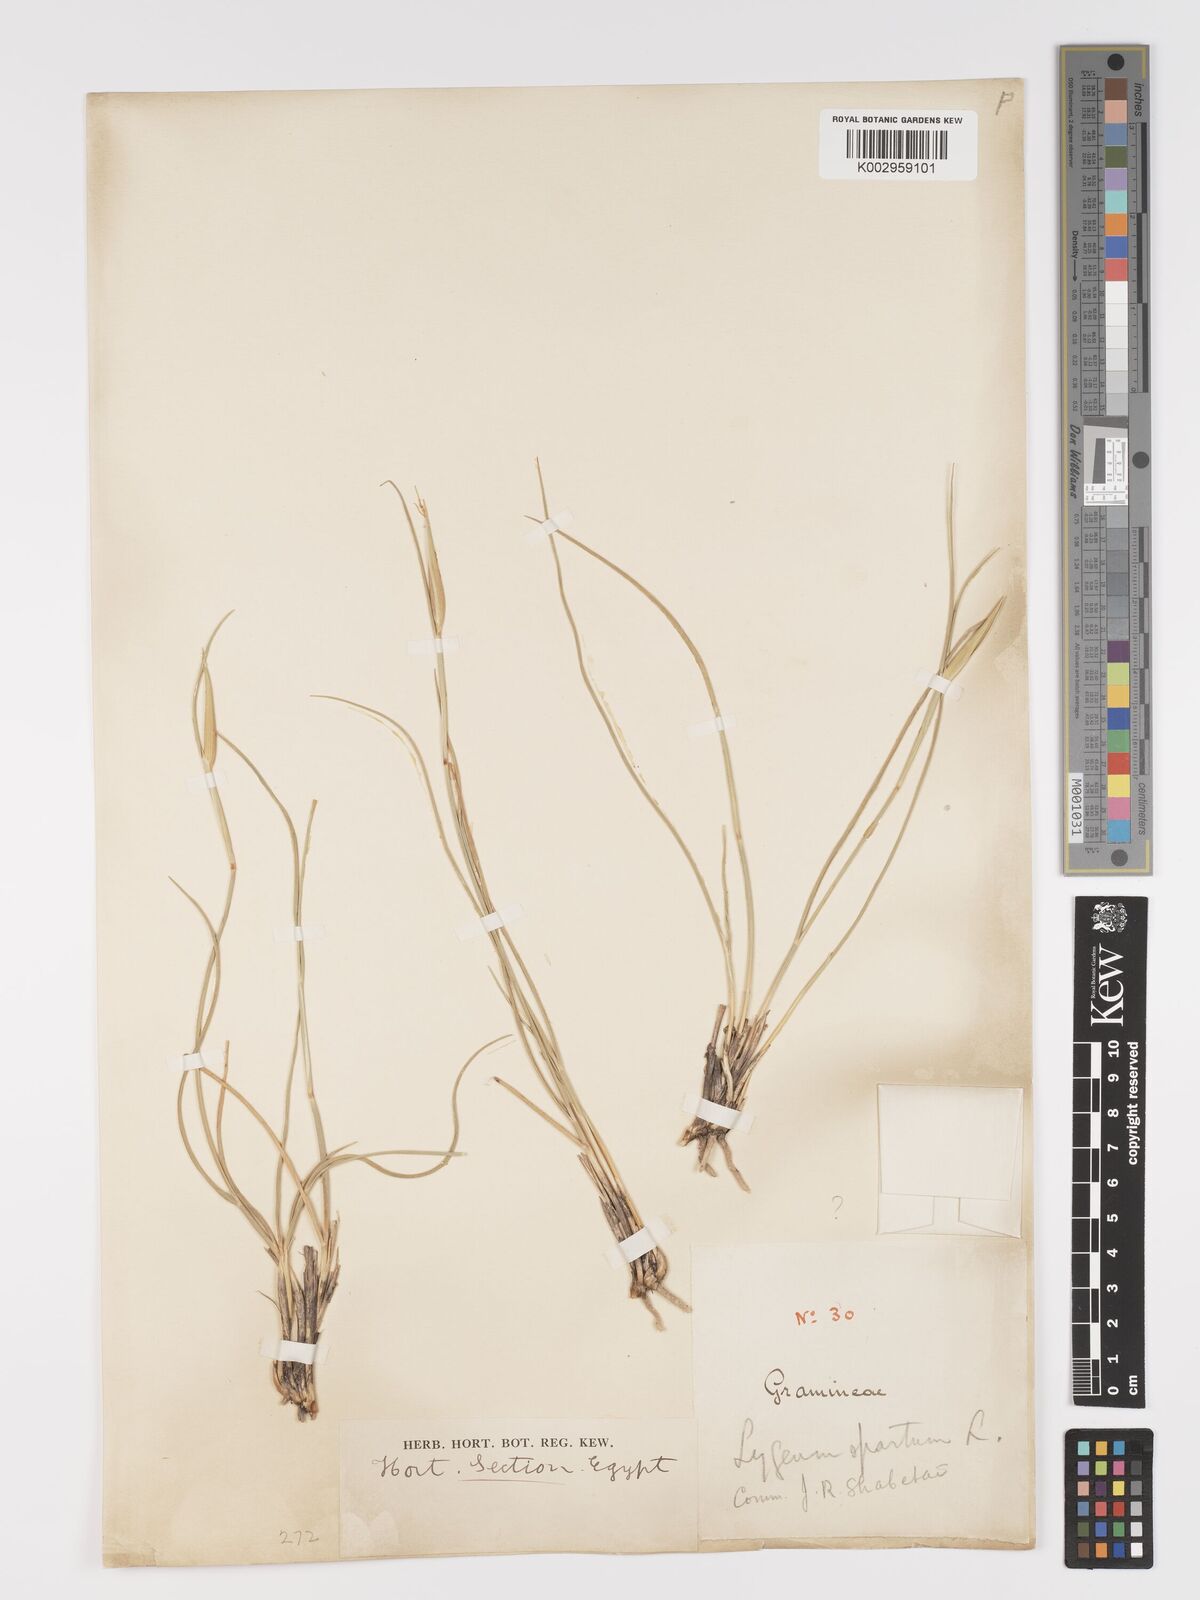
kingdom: Plantae
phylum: Tracheophyta
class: Liliopsida
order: Poales
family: Poaceae
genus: Lygeum
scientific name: Lygeum spartum
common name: Albardine
